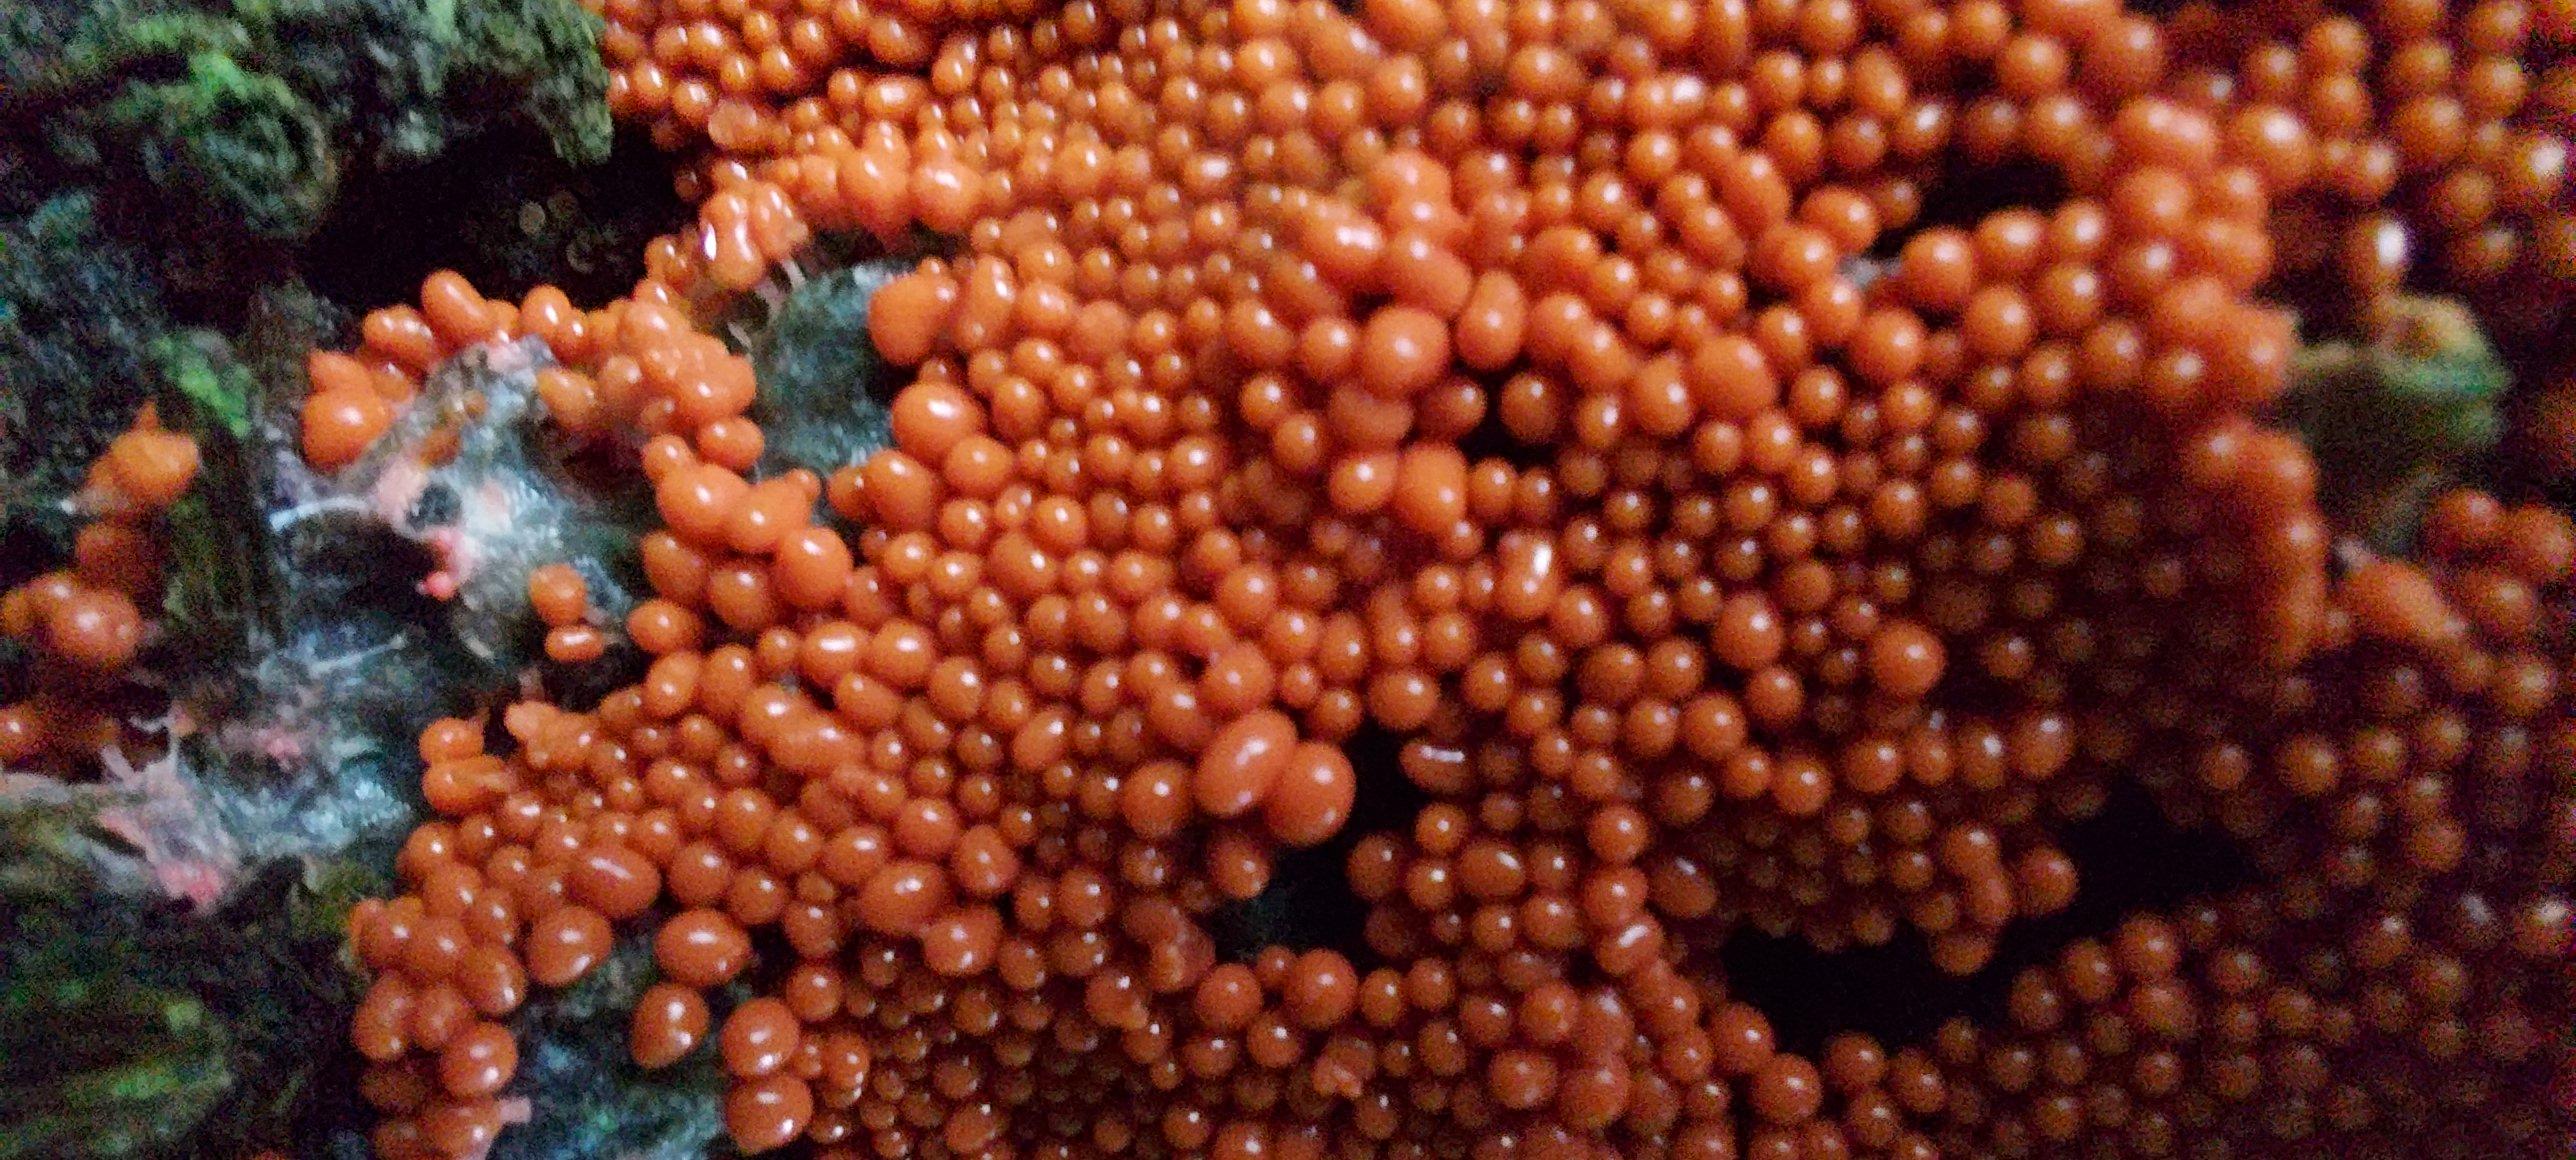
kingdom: Protozoa
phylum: Mycetozoa
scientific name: Mycetozoa
